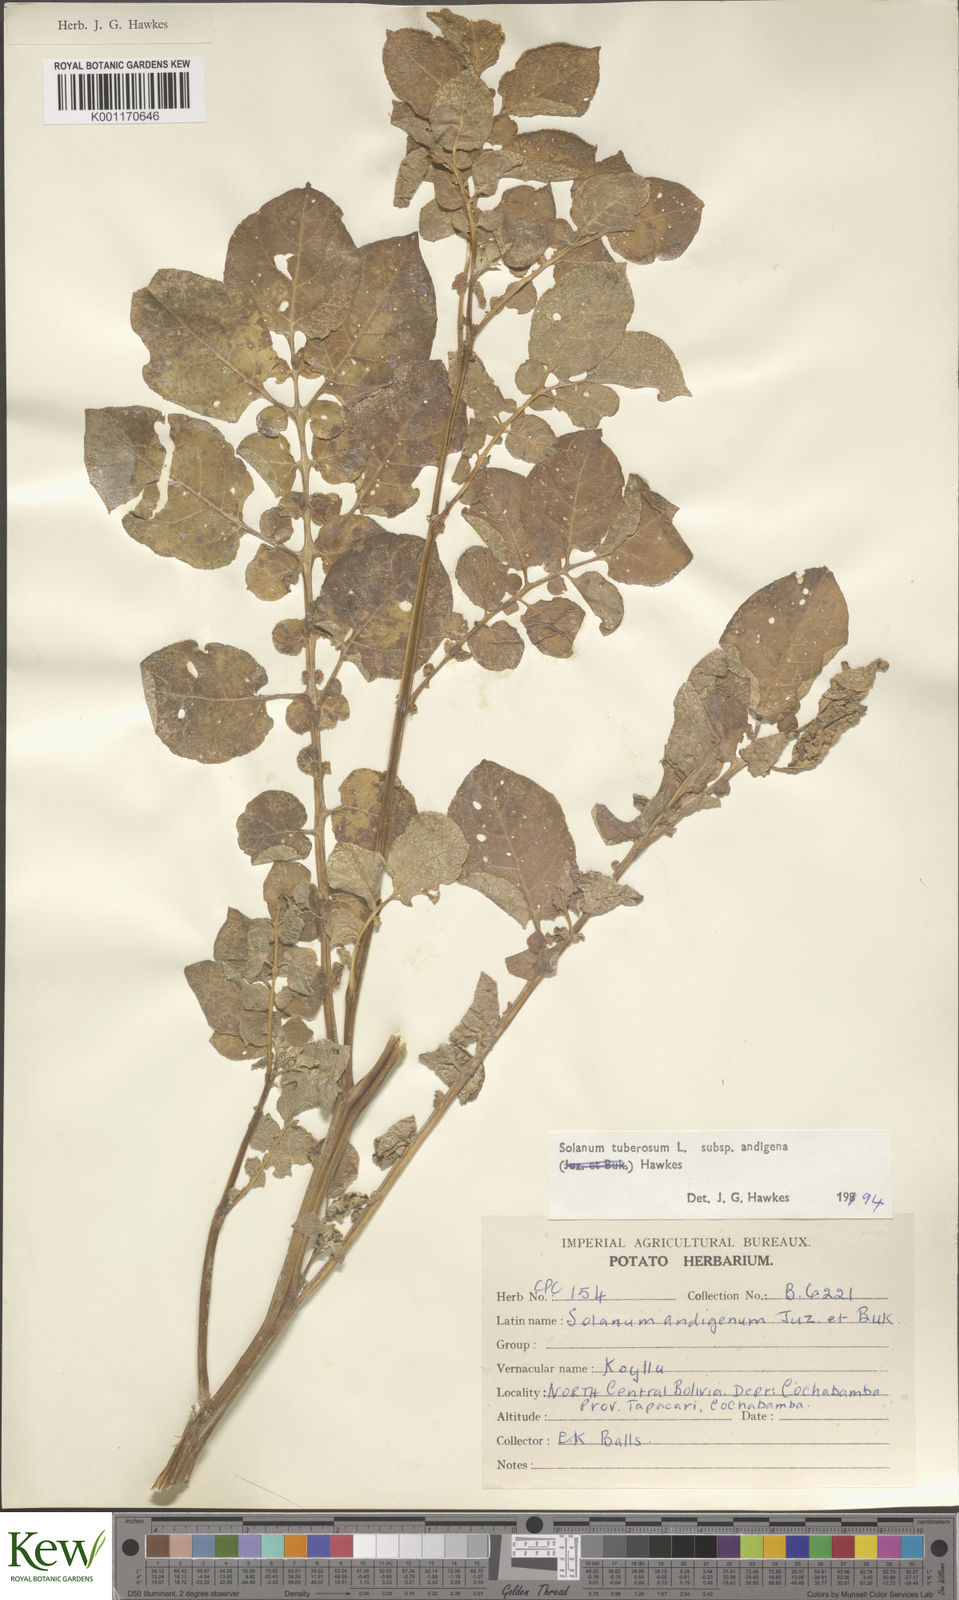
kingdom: Plantae
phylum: Tracheophyta
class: Magnoliopsida
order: Solanales
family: Solanaceae
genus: Solanum
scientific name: Solanum tuberosum
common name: Potato
